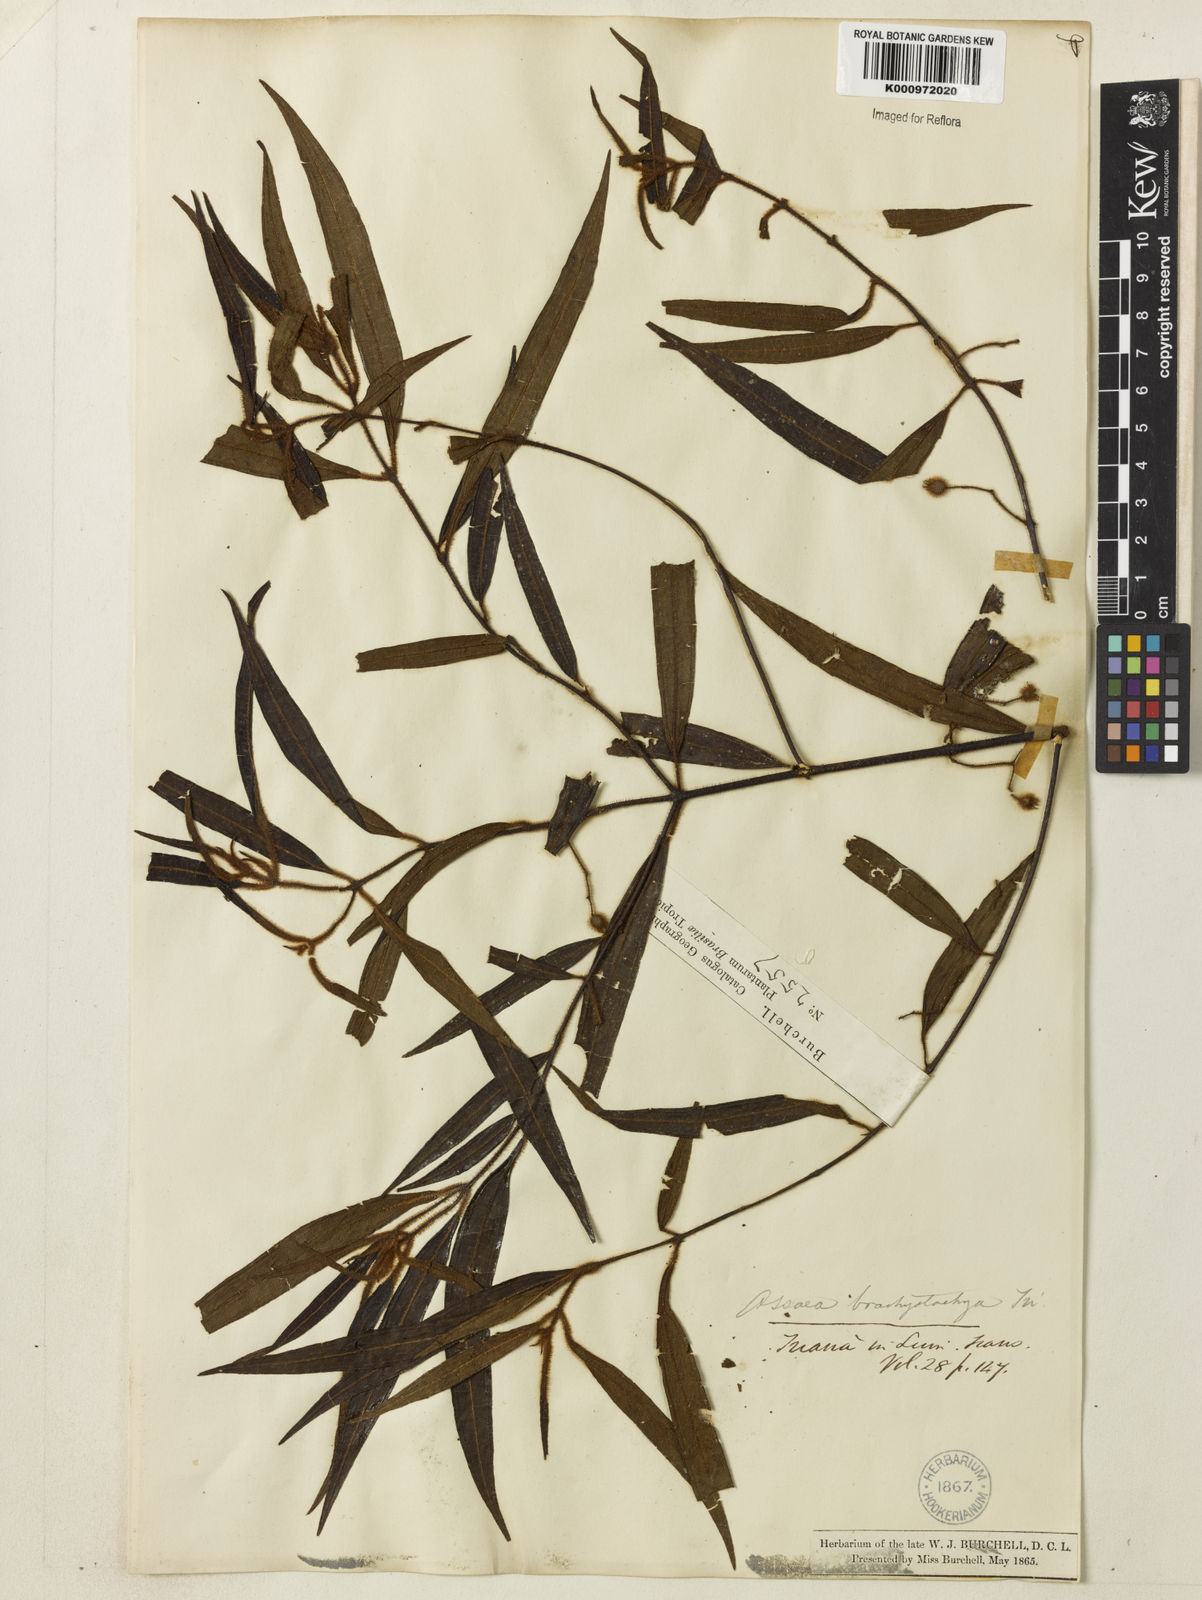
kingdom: Plantae
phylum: Tracheophyta
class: Magnoliopsida
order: Myrtales
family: Melastomataceae
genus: Miconia
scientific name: Miconia amygdaloides
